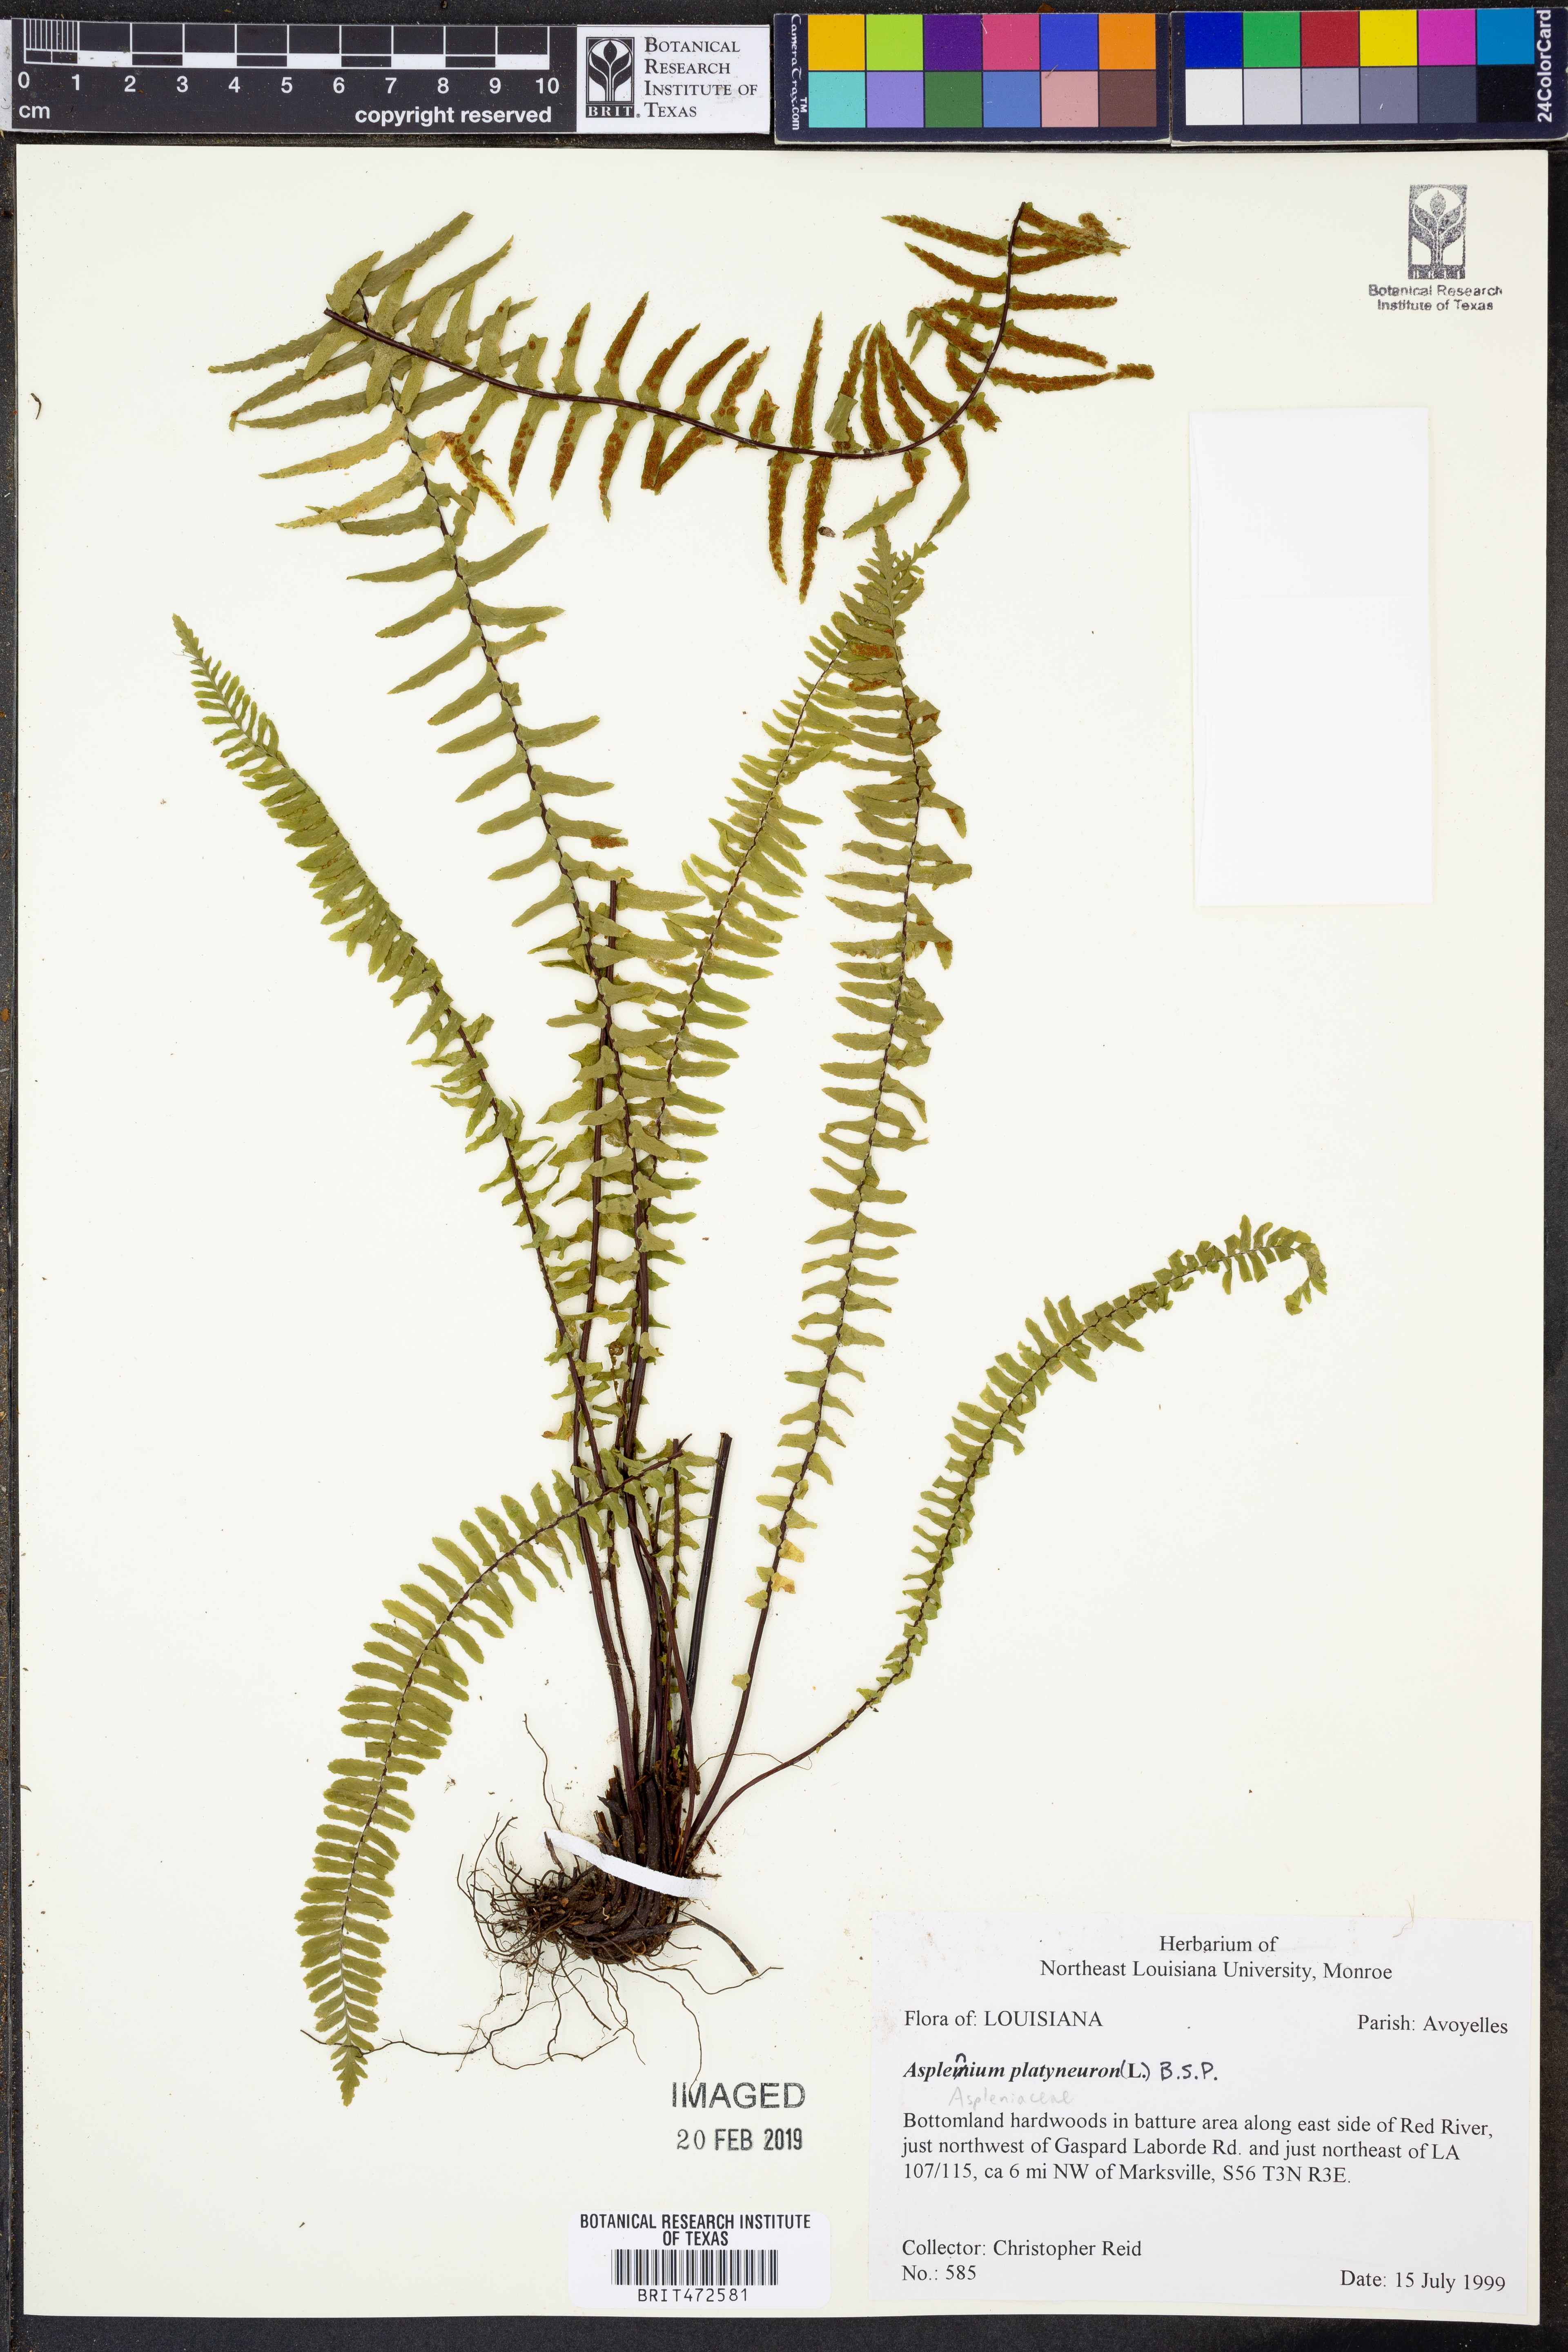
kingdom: Plantae
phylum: Tracheophyta
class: Polypodiopsida
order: Polypodiales
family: Aspleniaceae
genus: Asplenium
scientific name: Asplenium platyneuron
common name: Ebony spleenwort
